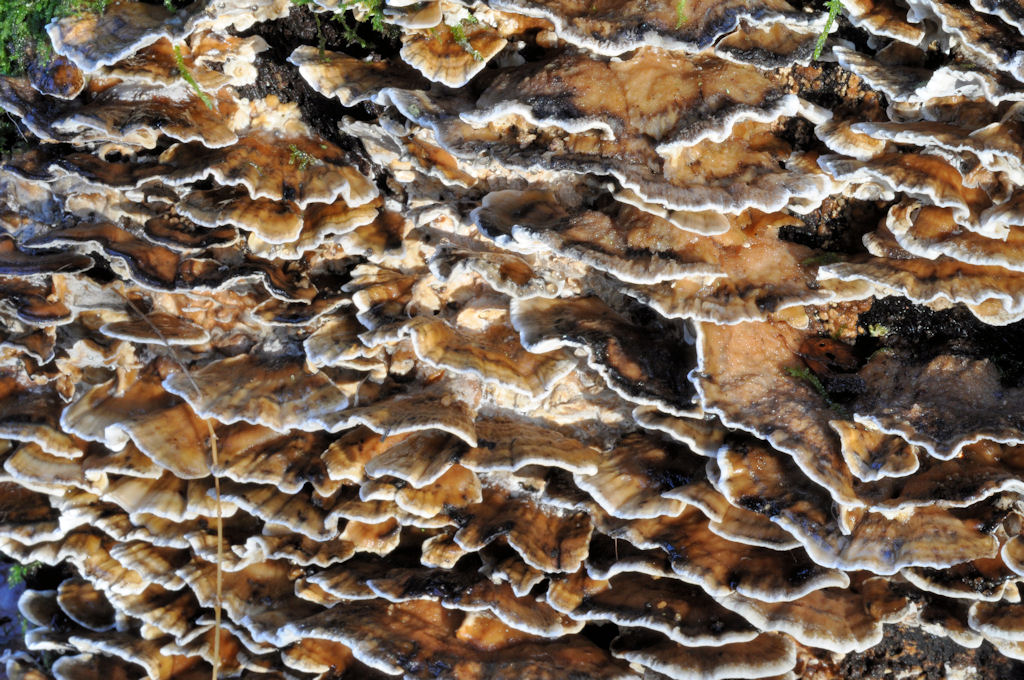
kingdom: Fungi
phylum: Basidiomycota
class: Agaricomycetes
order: Polyporales
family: Phanerochaetaceae
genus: Bjerkandera
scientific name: Bjerkandera adusta
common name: sveden sodporesvamp
